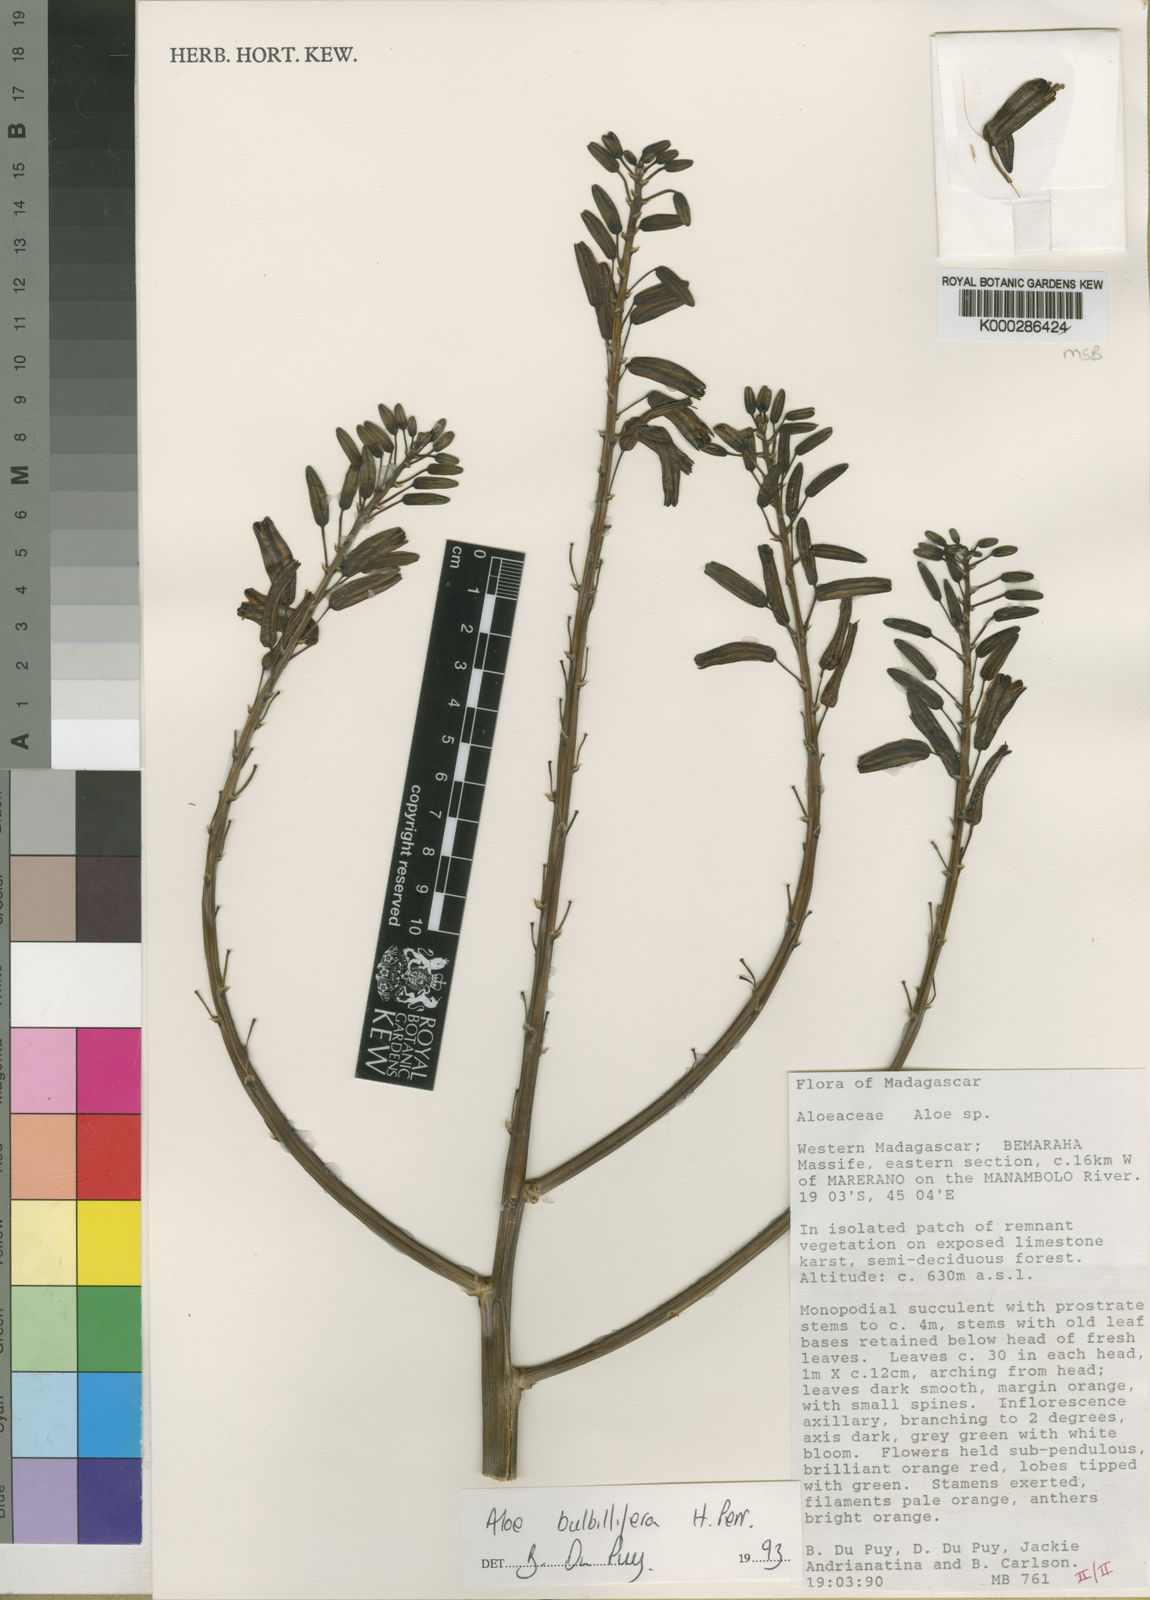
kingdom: Plantae
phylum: Tracheophyta
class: Liliopsida
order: Asparagales
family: Asphodelaceae
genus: Aloe
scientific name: Aloe
